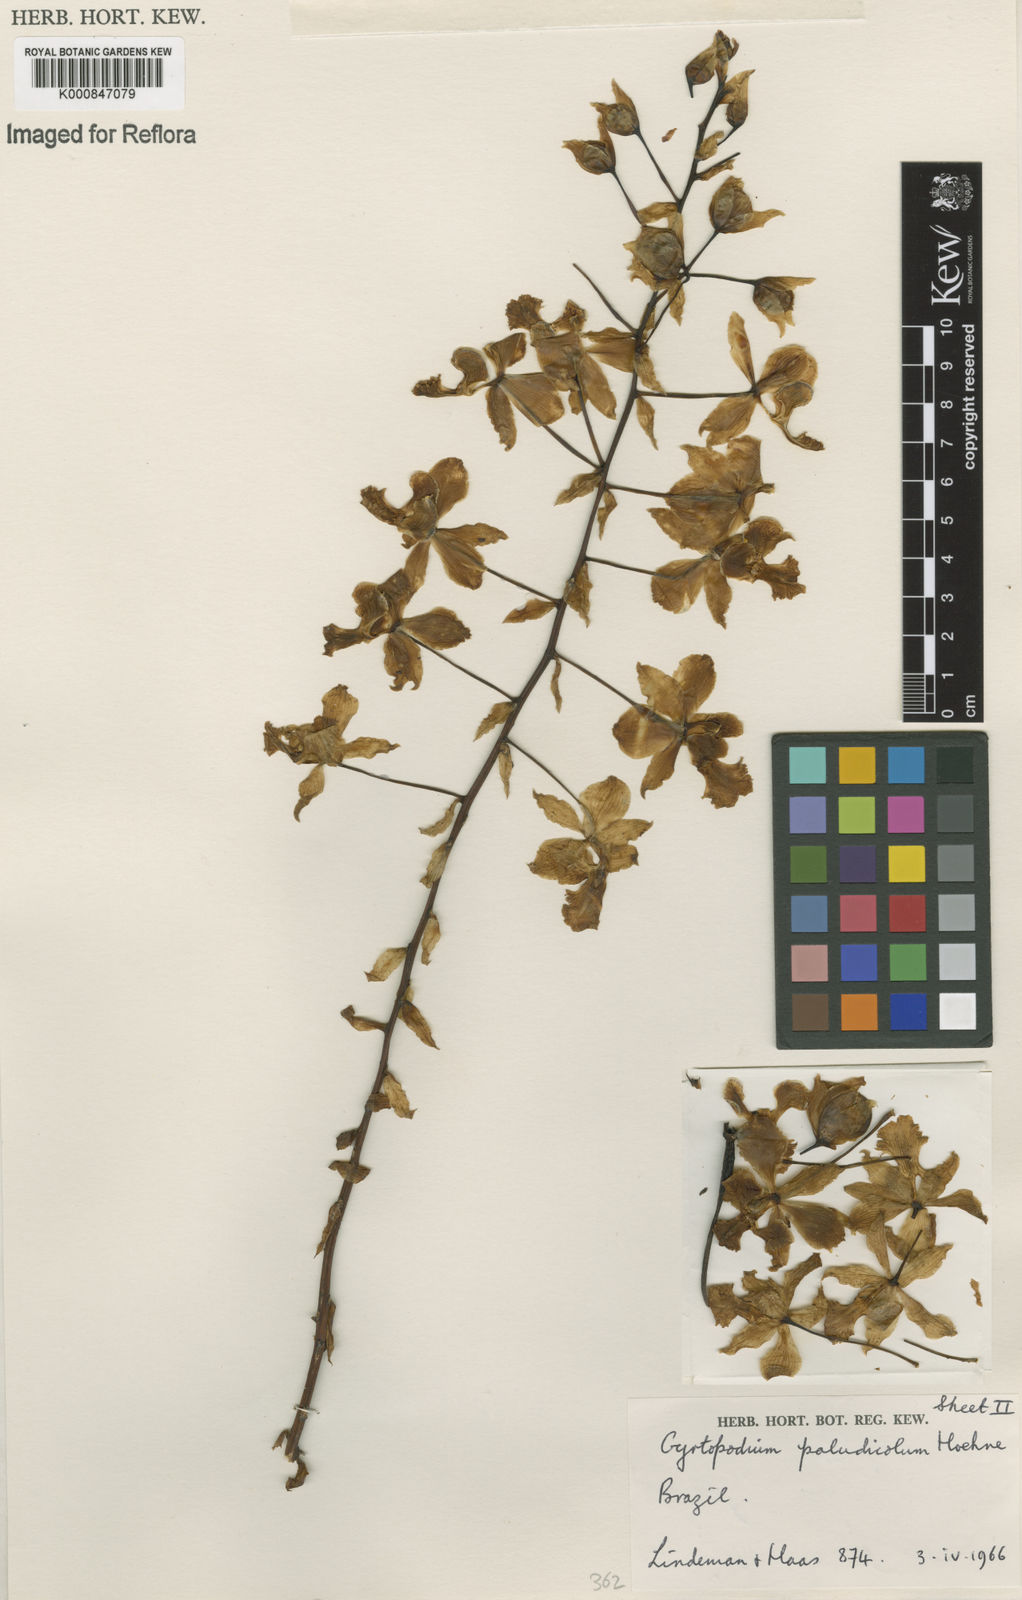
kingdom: Plantae
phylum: Tracheophyta
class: Liliopsida
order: Asparagales
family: Orchidaceae
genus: Cyrtopodium
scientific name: Cyrtopodium paludicola
